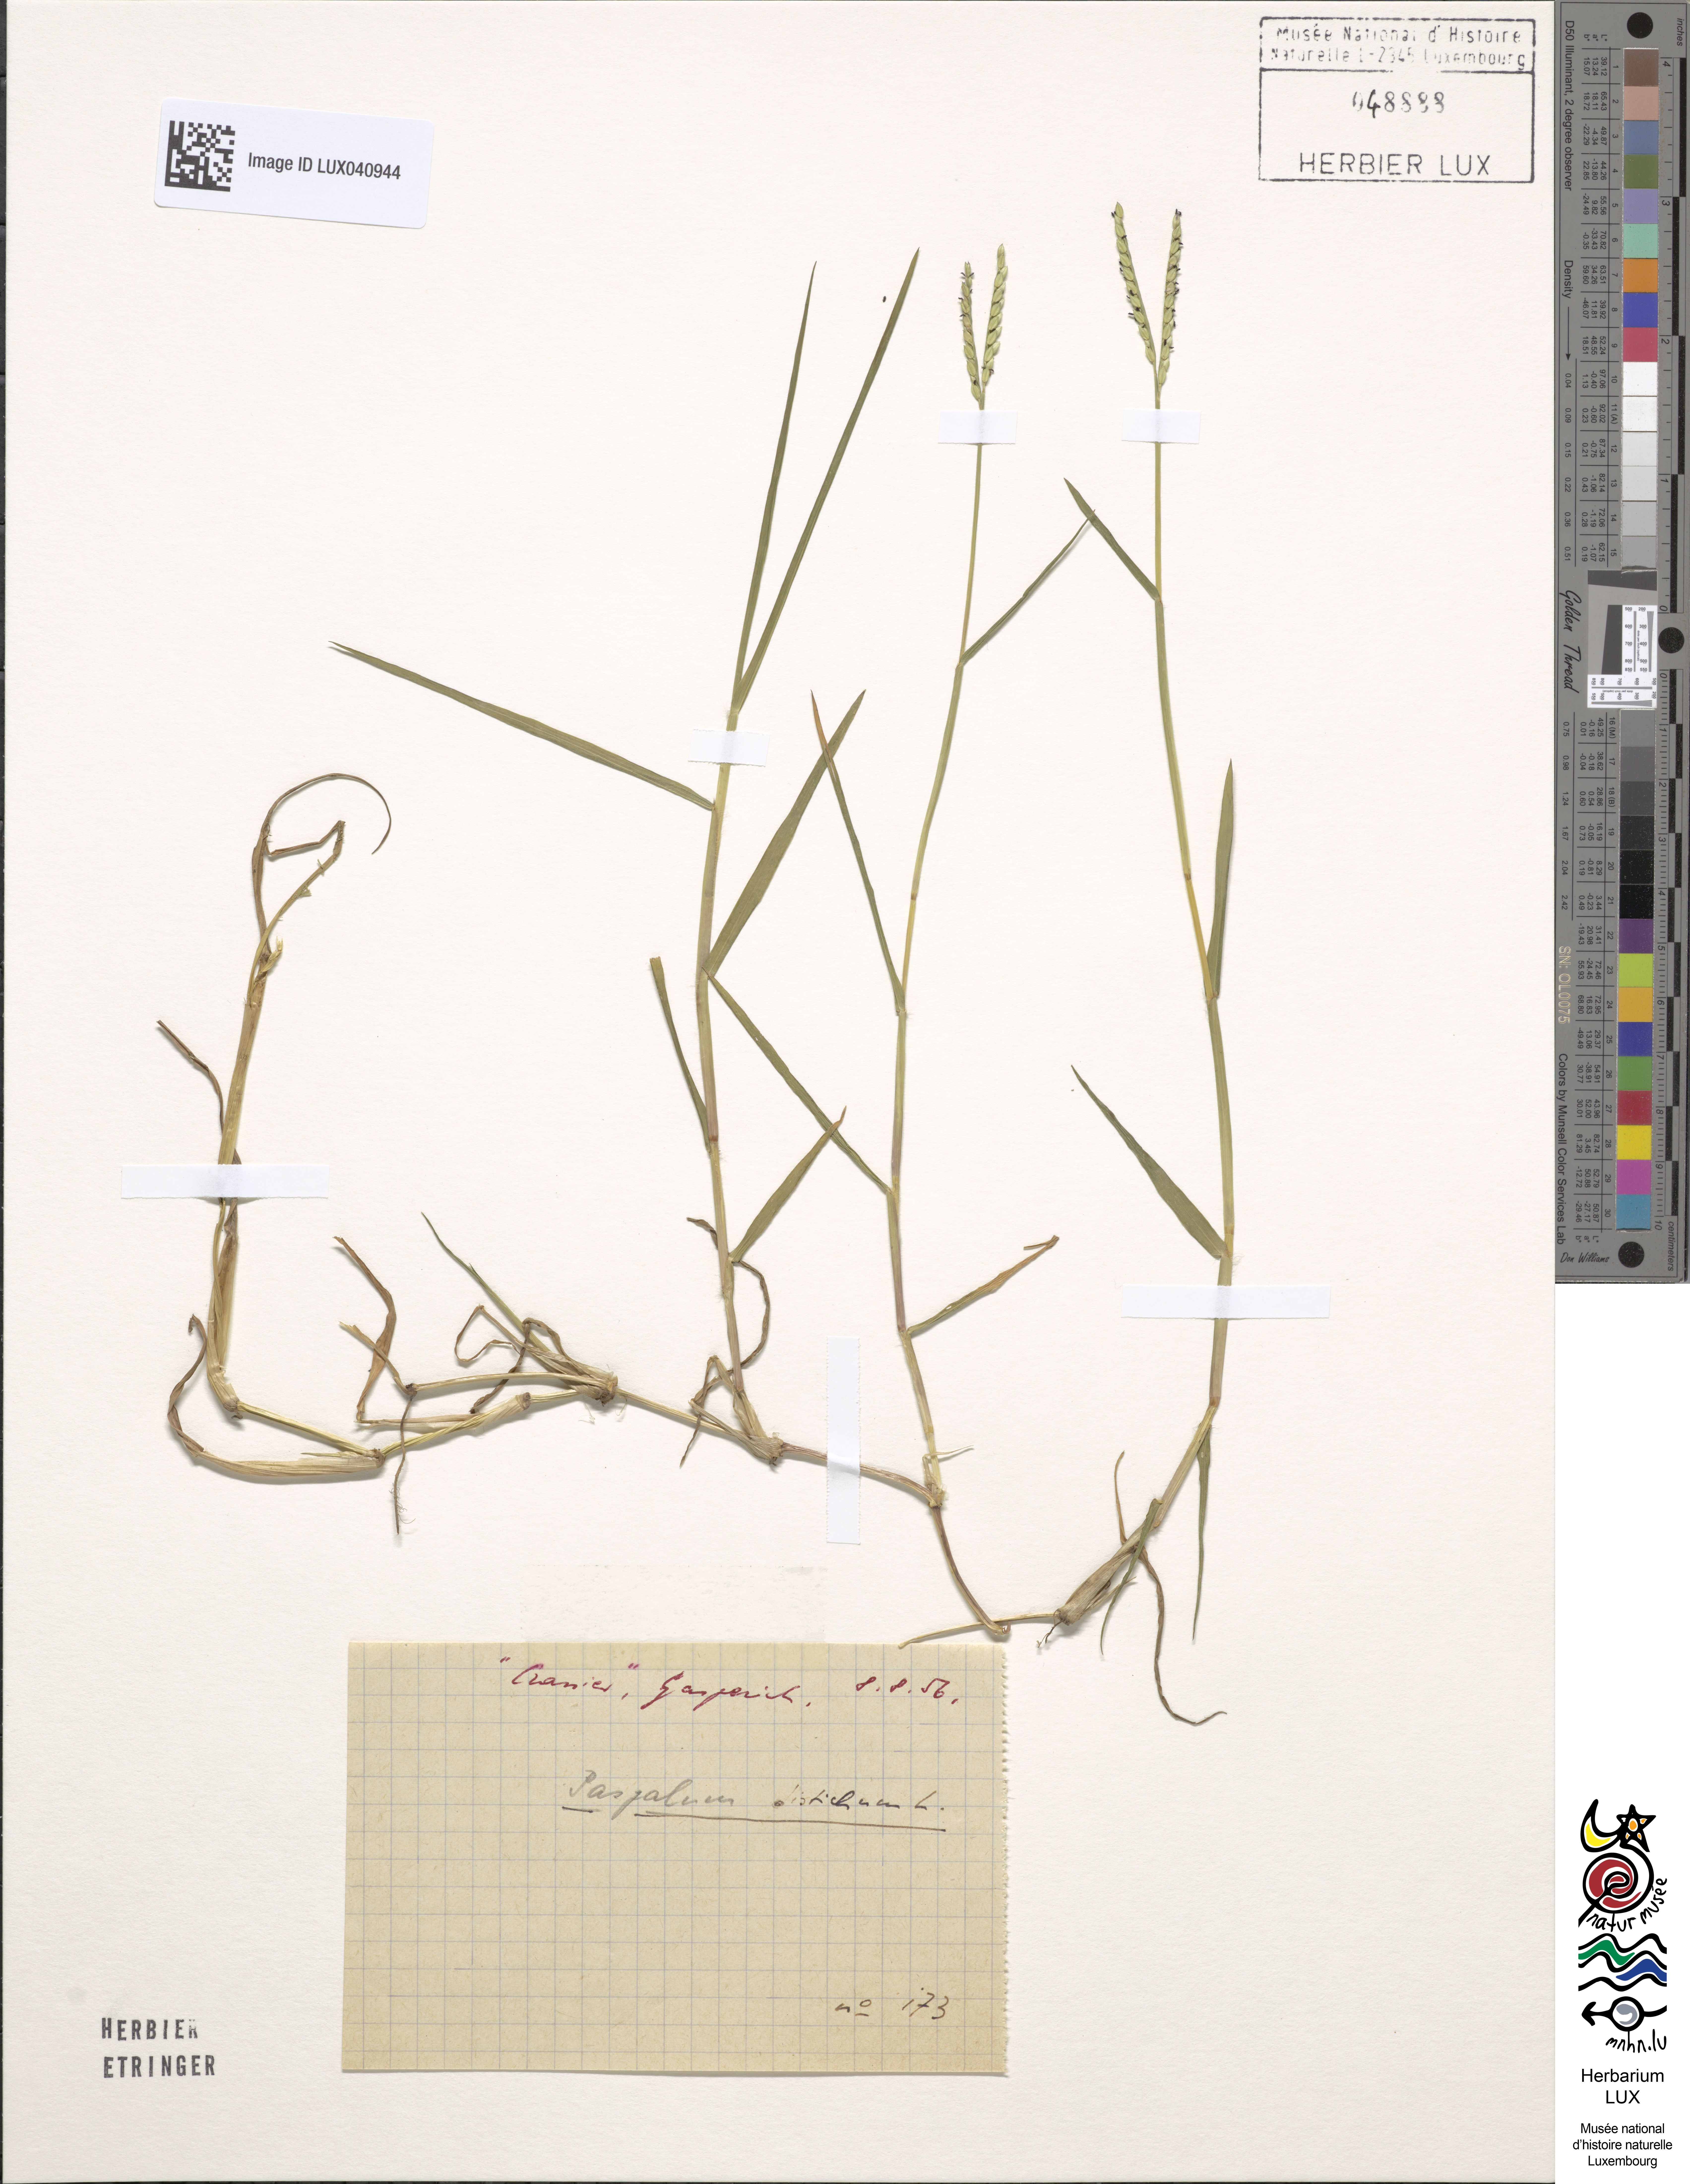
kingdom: Plantae
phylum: Tracheophyta
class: Liliopsida
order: Poales
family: Poaceae
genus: Paspalum
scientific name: Paspalum distichum
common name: Knotgrass
